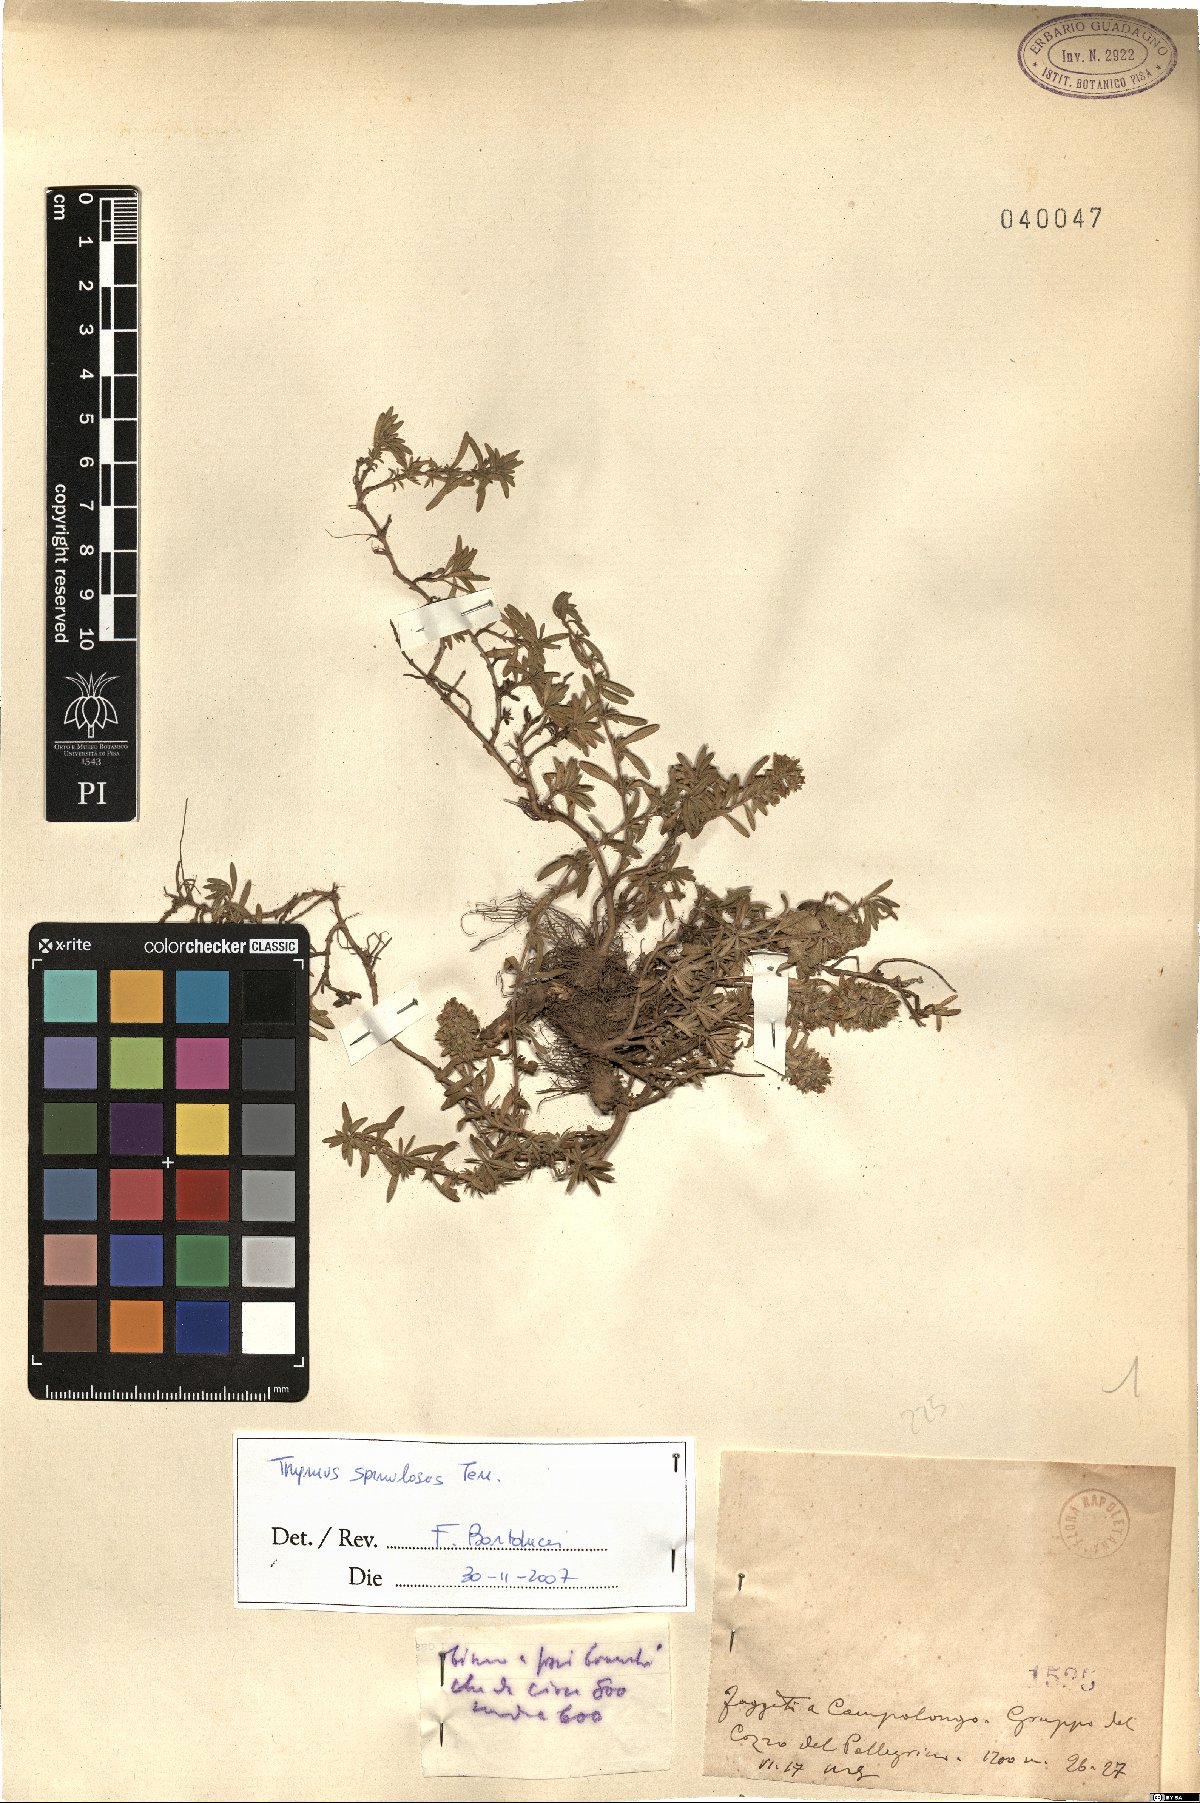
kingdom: Plantae
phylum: Tracheophyta
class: Magnoliopsida
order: Lamiales
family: Lamiaceae
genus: Thymus
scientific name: Thymus spinulosus
